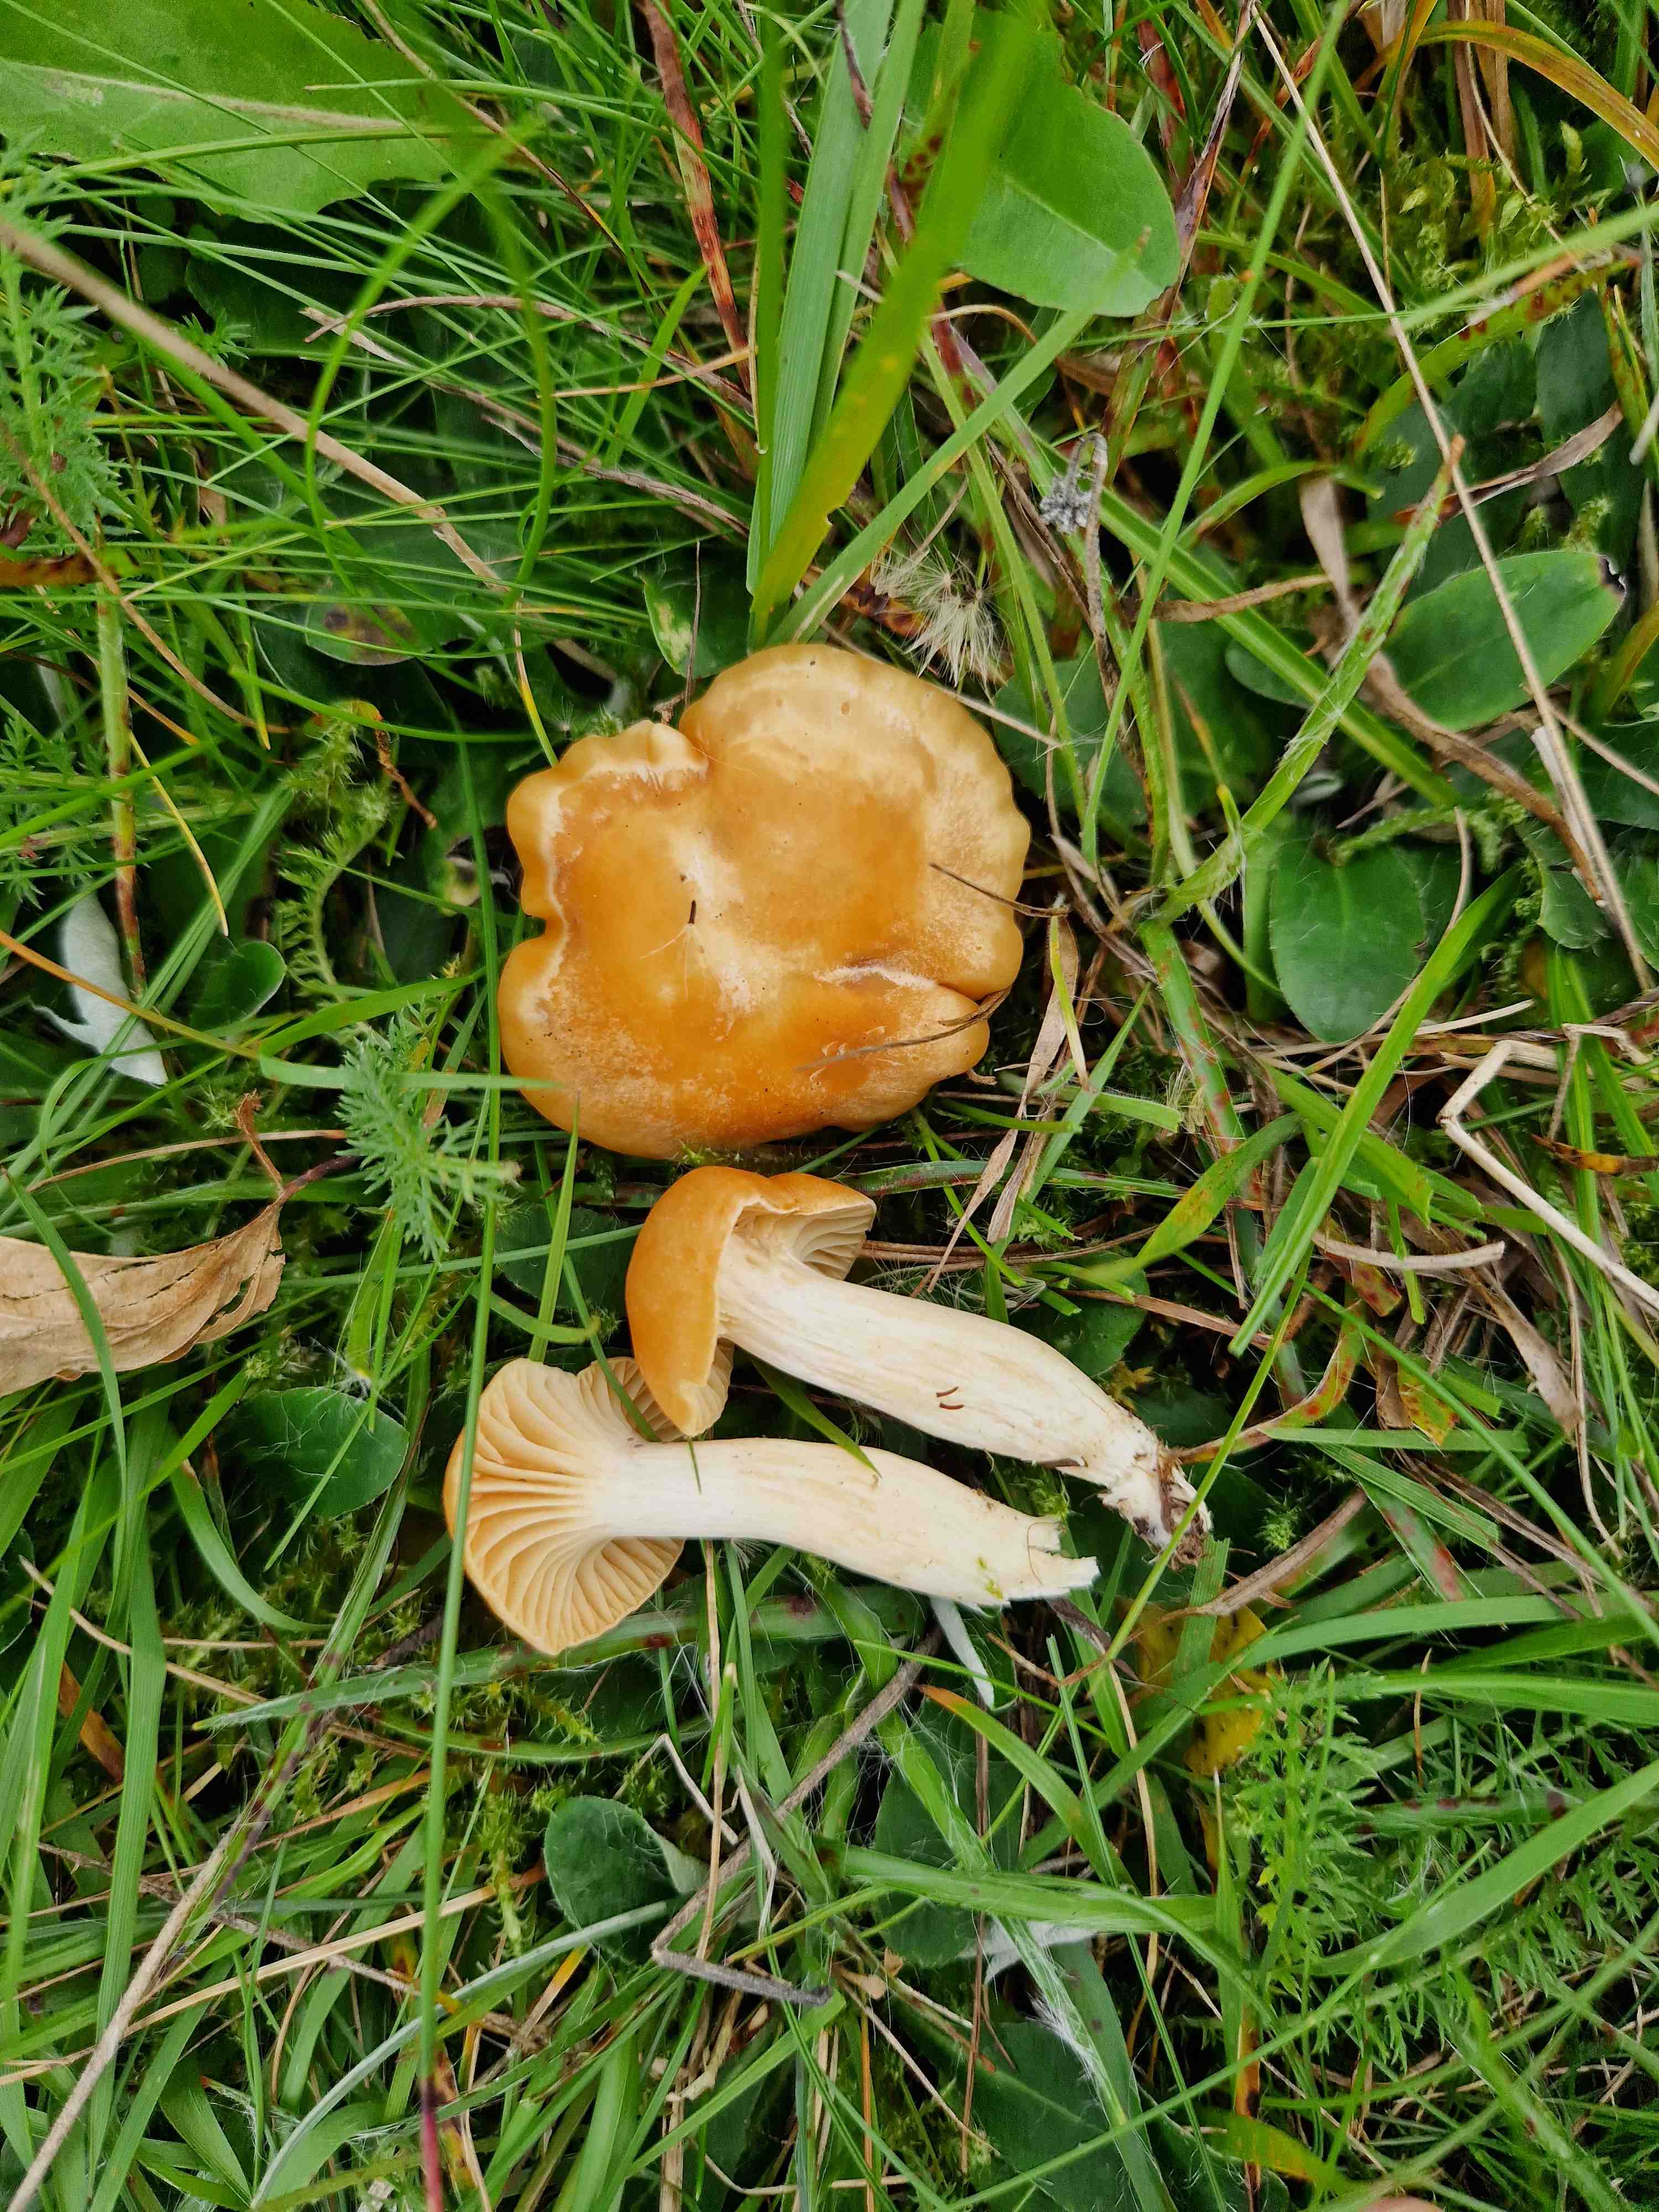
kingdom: Fungi
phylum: Basidiomycota
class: Agaricomycetes
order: Agaricales
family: Hygrophoraceae
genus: Cuphophyllus
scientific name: Cuphophyllus pratensis
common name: eng-vokshat
